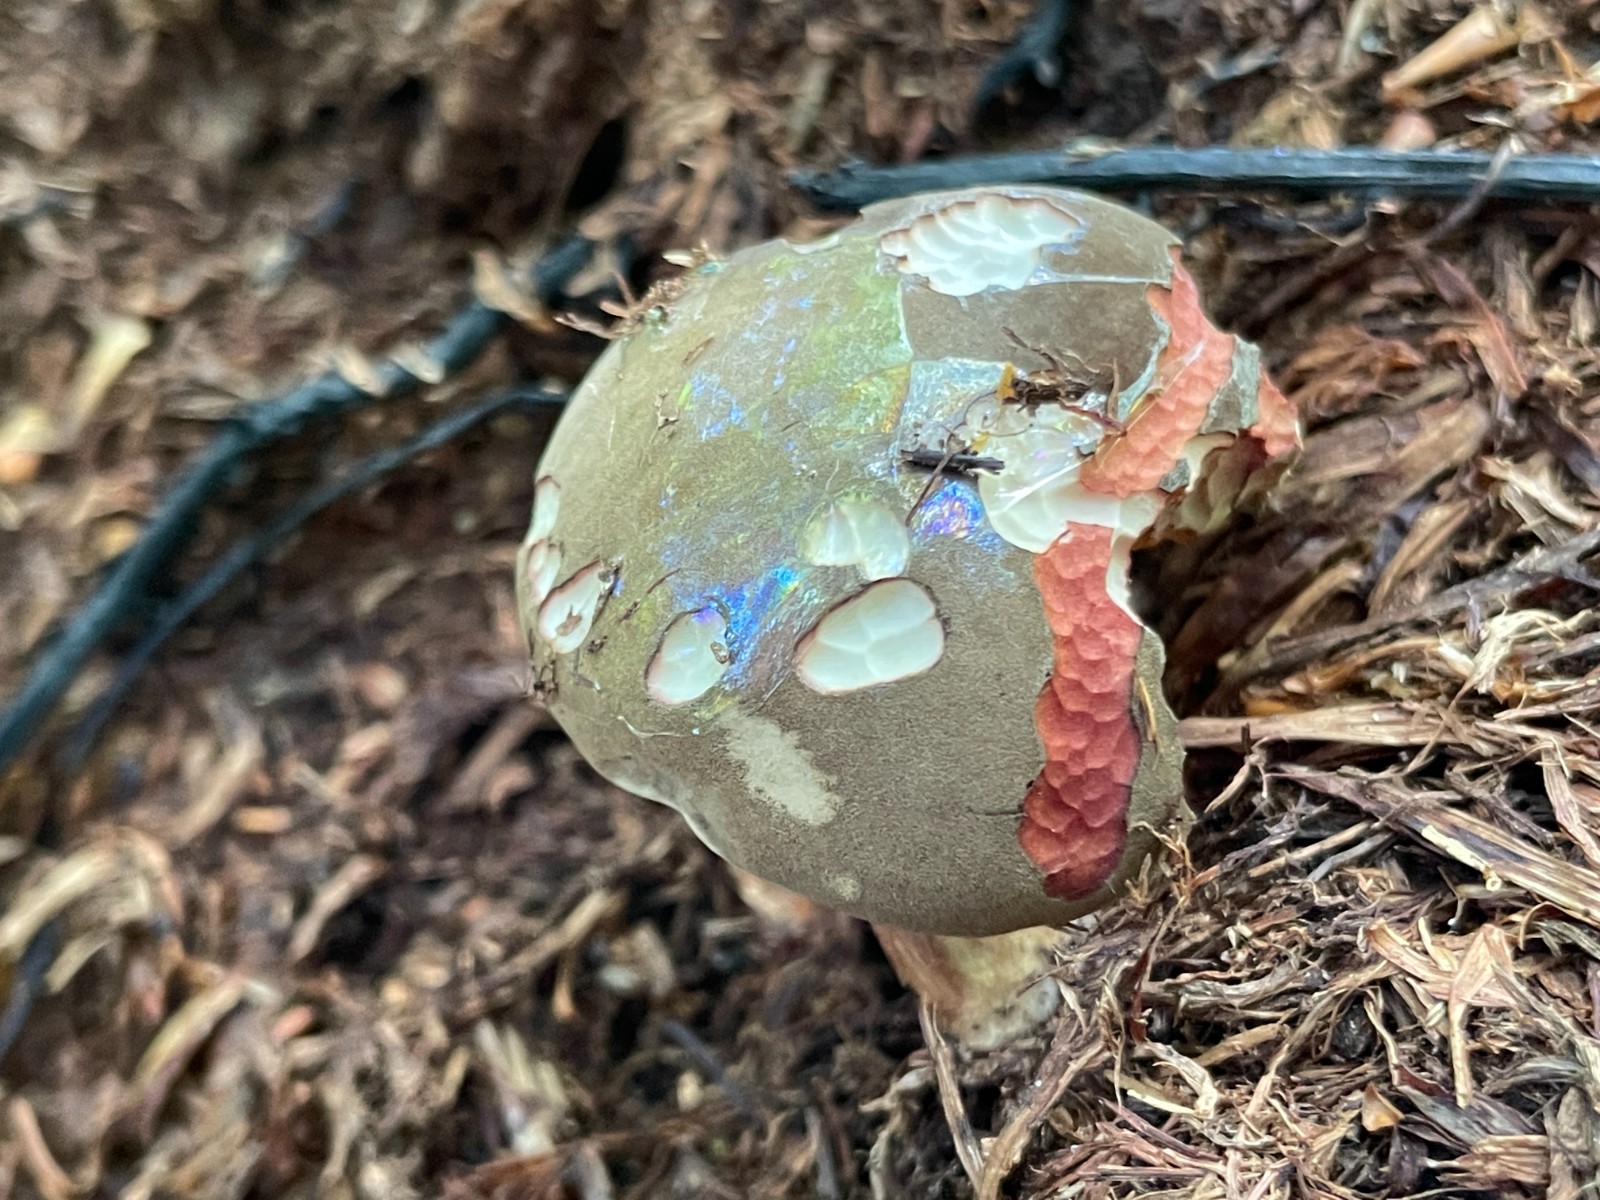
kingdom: Fungi
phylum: Basidiomycota
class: Agaricomycetes
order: Boletales
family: Boletaceae
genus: Xerocomellus
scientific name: Xerocomellus pruinatus
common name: dugget rørhat
